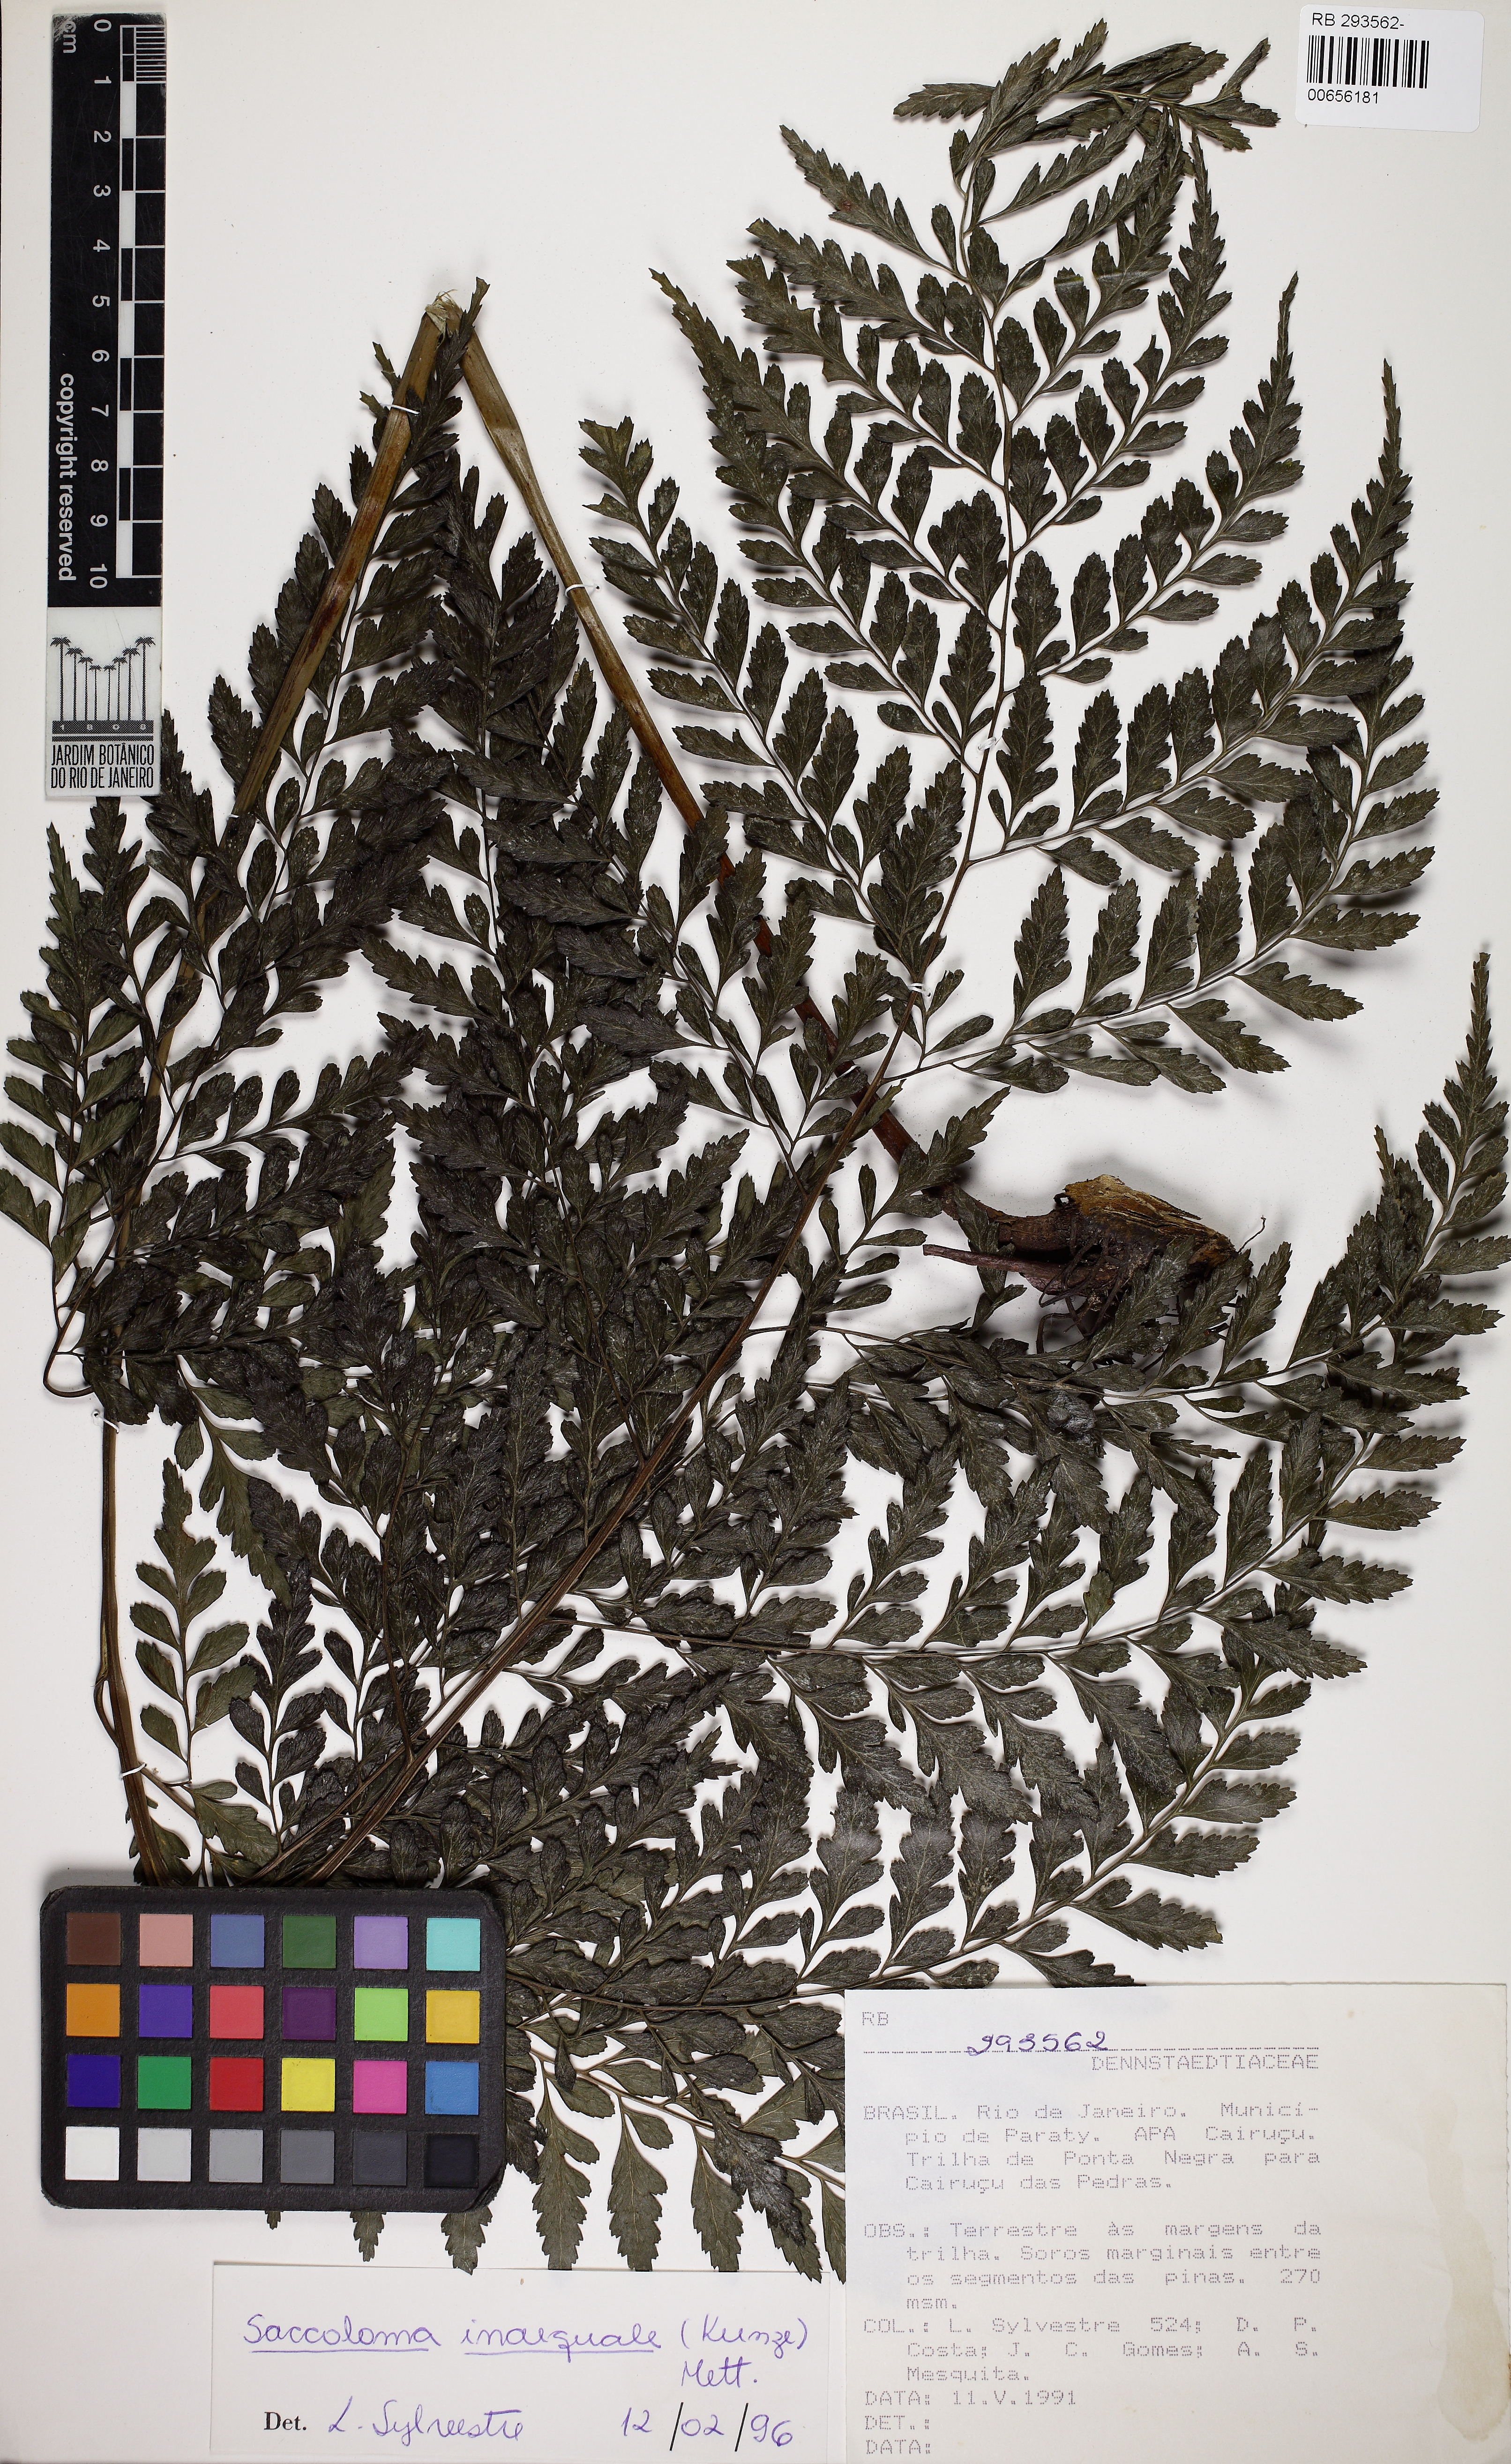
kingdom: Plantae
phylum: Tracheophyta
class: Polypodiopsida
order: Polypodiales
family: Saccolomataceae
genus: Saccoloma
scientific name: Saccoloma inaequale
